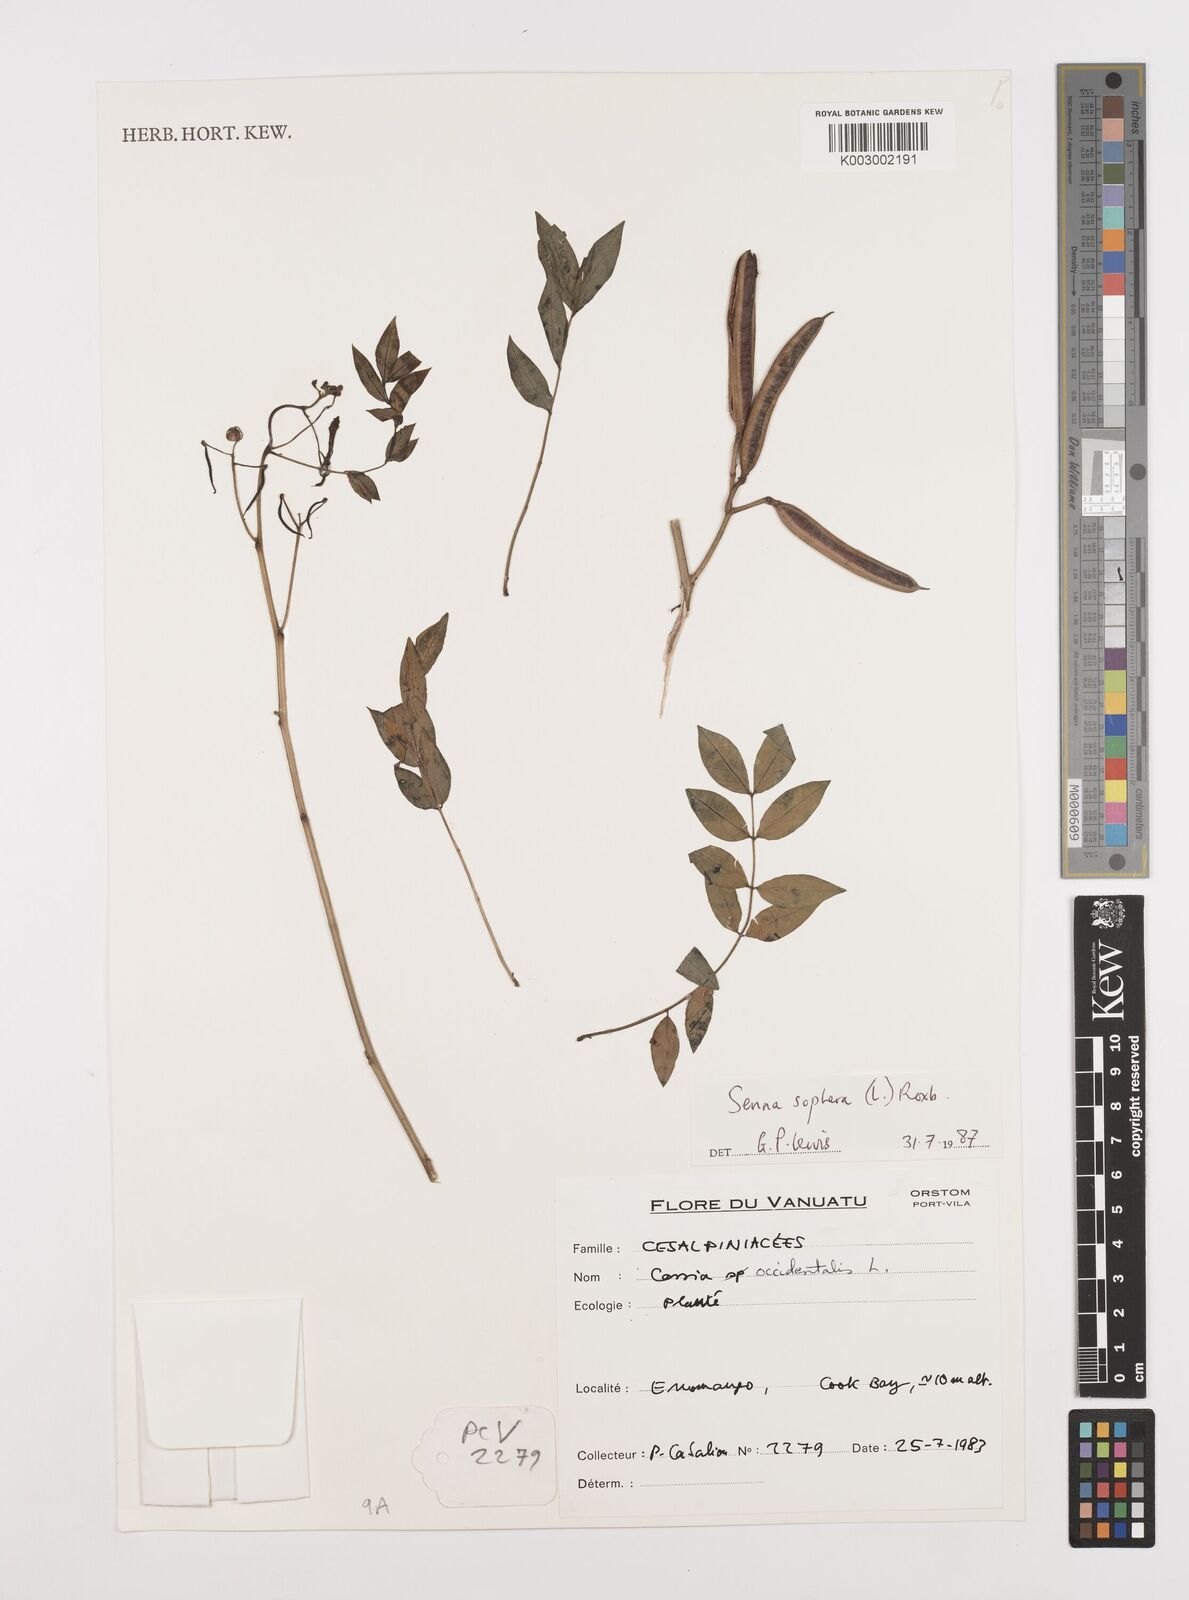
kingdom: Plantae
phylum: Tracheophyta
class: Magnoliopsida
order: Fabales
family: Fabaceae
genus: Senna
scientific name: Senna sophera
